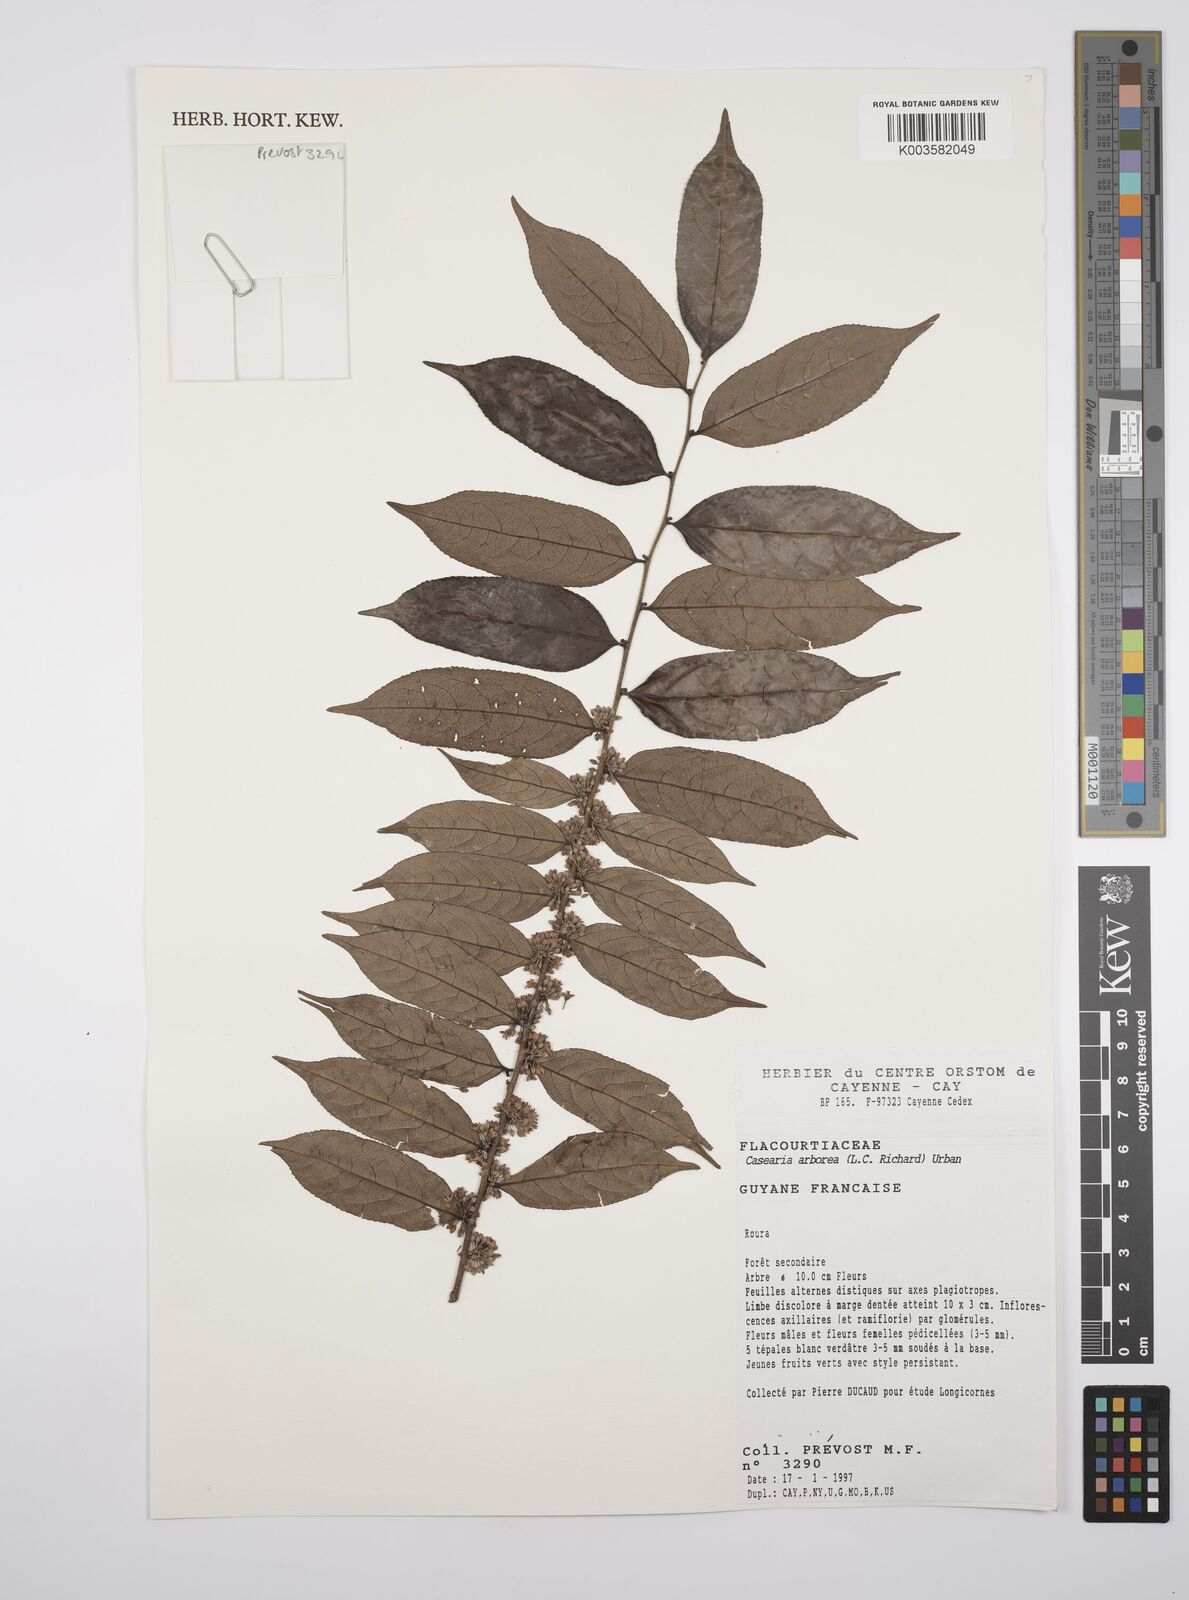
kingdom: Plantae
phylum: Tracheophyta
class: Magnoliopsida
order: Malpighiales
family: Salicaceae
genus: Casearia
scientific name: Casearia arborea
